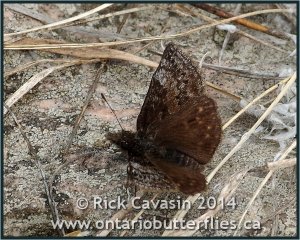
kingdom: Animalia
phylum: Arthropoda
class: Insecta
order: Lepidoptera
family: Hesperiidae
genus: Erynnis
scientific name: Erynnis icelus
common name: Dreamy Duskywing
